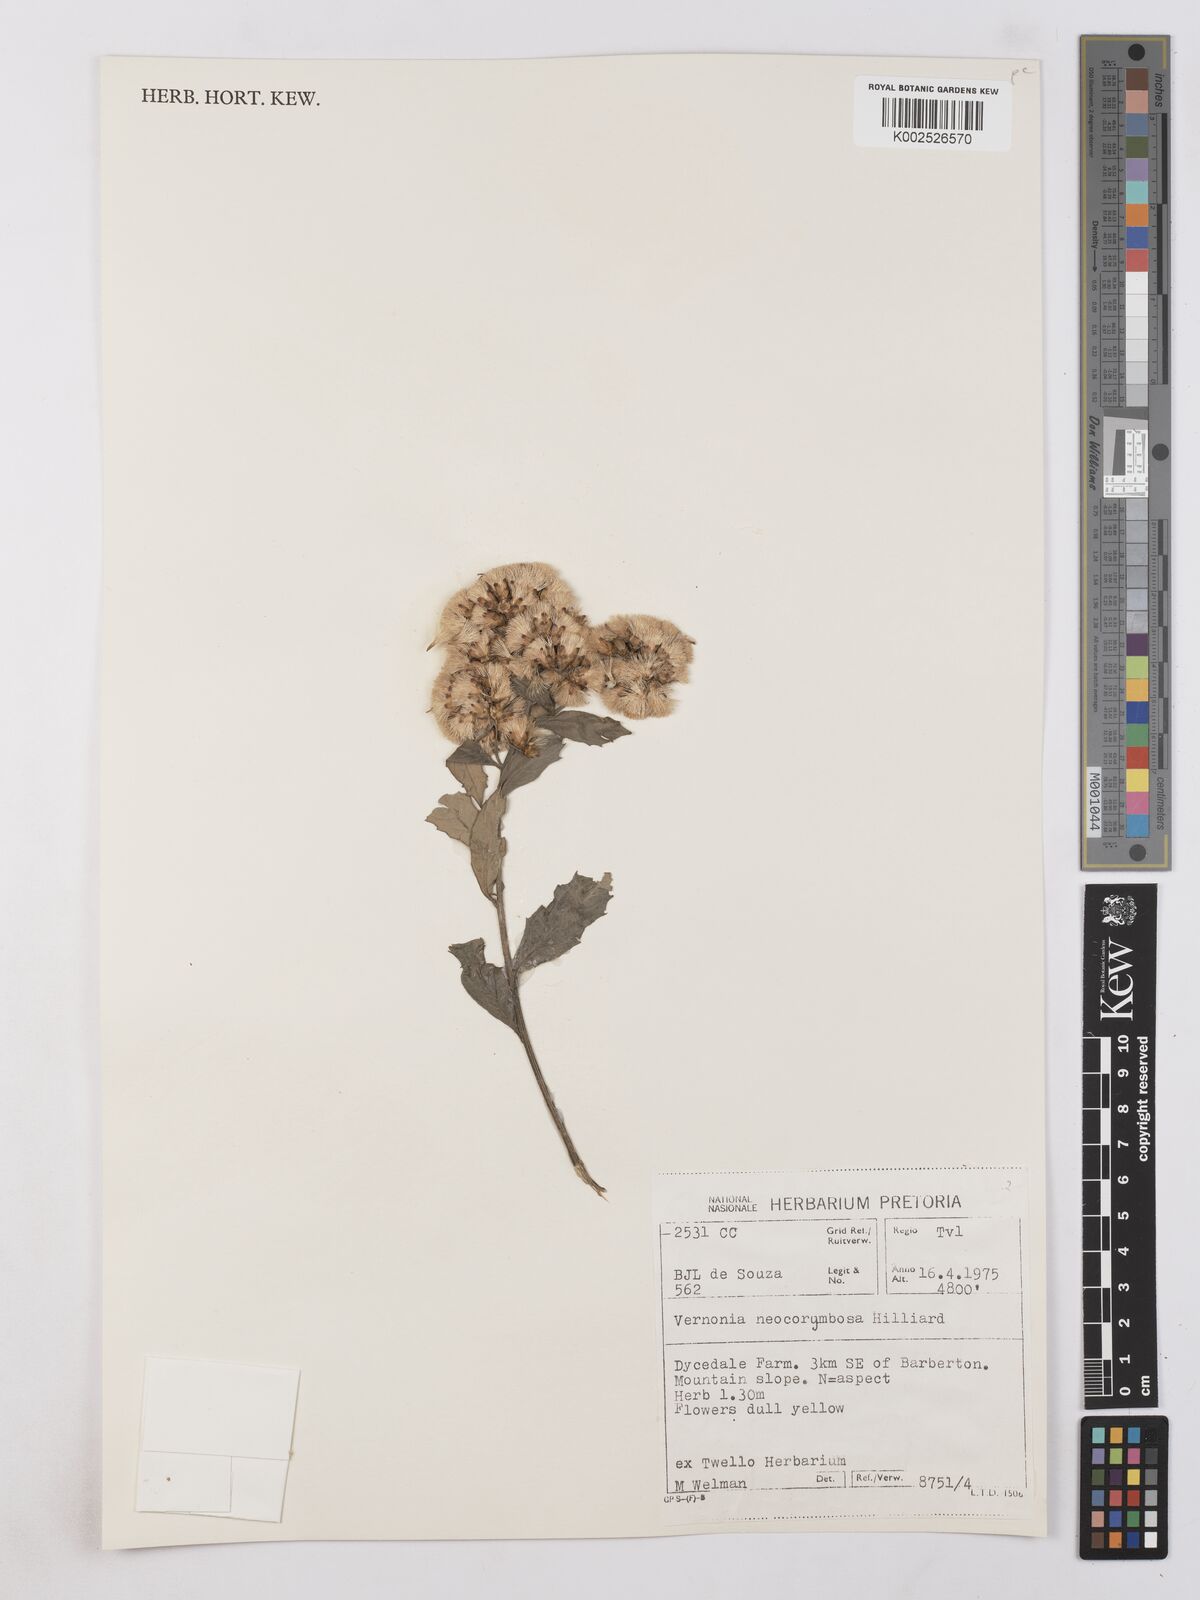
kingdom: Plantae
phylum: Tracheophyta
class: Magnoliopsida
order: Asterales
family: Asteraceae
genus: Gymnanthemum
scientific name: Gymnanthemum corymbosum
